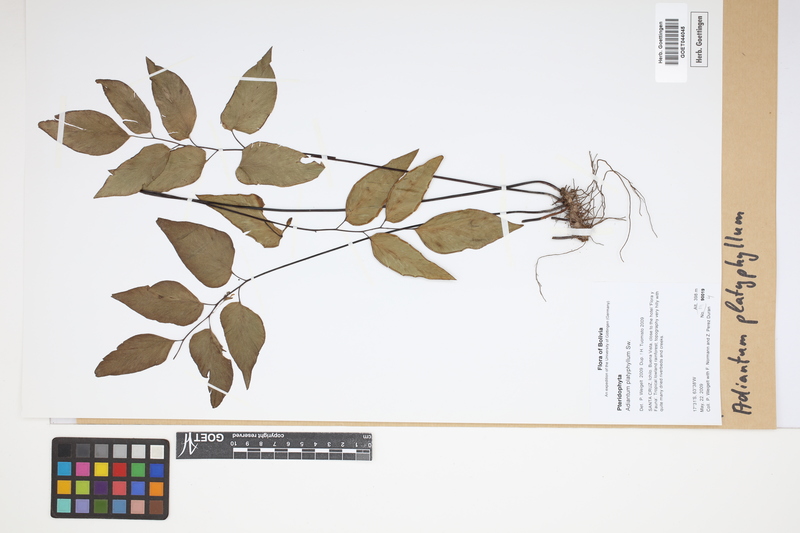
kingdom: Plantae
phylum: Tracheophyta
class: Polypodiopsida
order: Polypodiales
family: Pteridaceae
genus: Adiantum
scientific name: Adiantum platyphyllum
